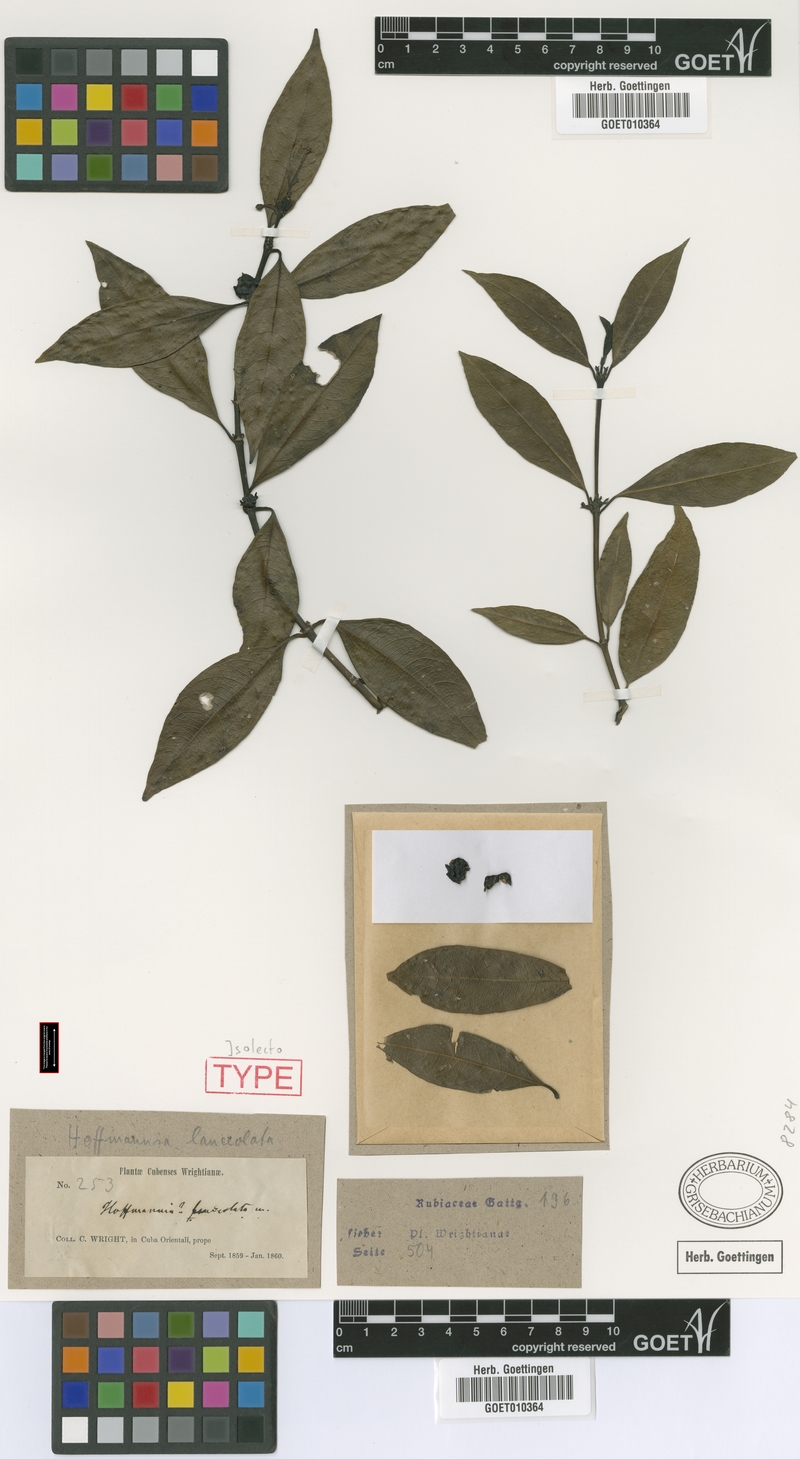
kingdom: Plantae
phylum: Tracheophyta
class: Magnoliopsida
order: Gentianales
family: Rubiaceae
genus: Lasianthus
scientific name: Lasianthus lanceolatus
